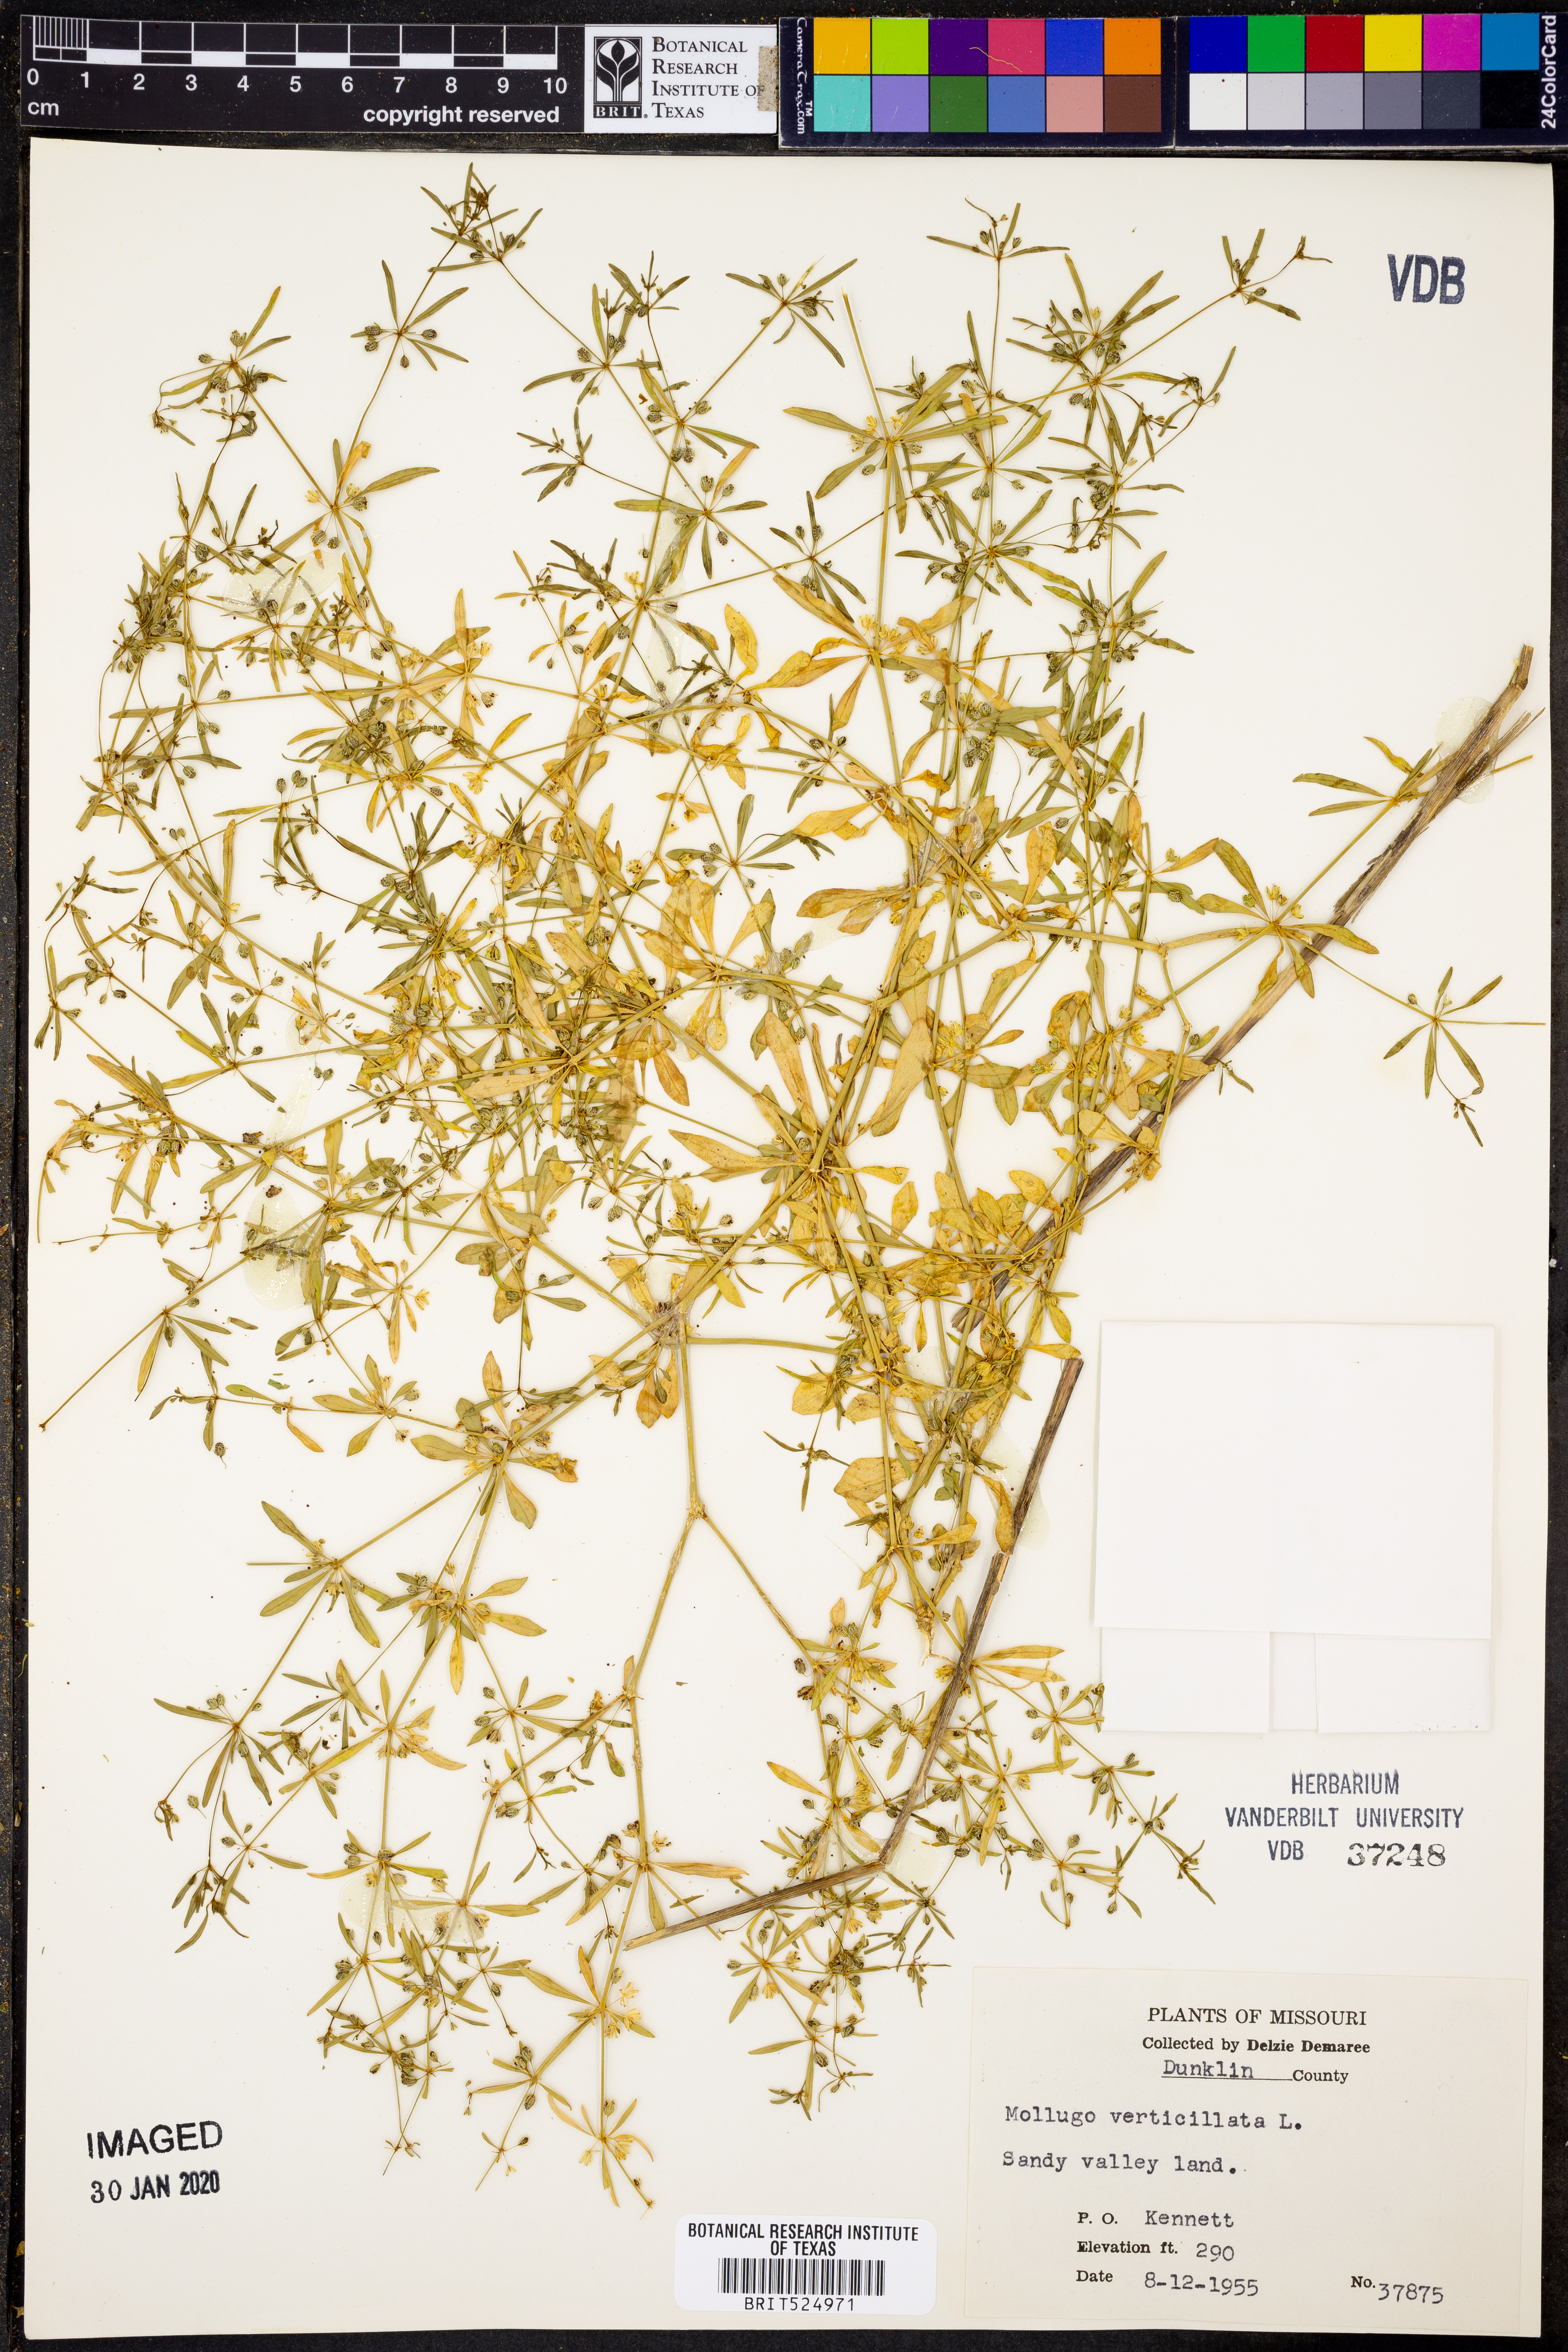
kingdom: Plantae
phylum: Tracheophyta
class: Magnoliopsida
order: Caryophyllales
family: Molluginaceae
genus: Mollugo
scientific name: Mollugo verticillata
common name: Green carpetweed
